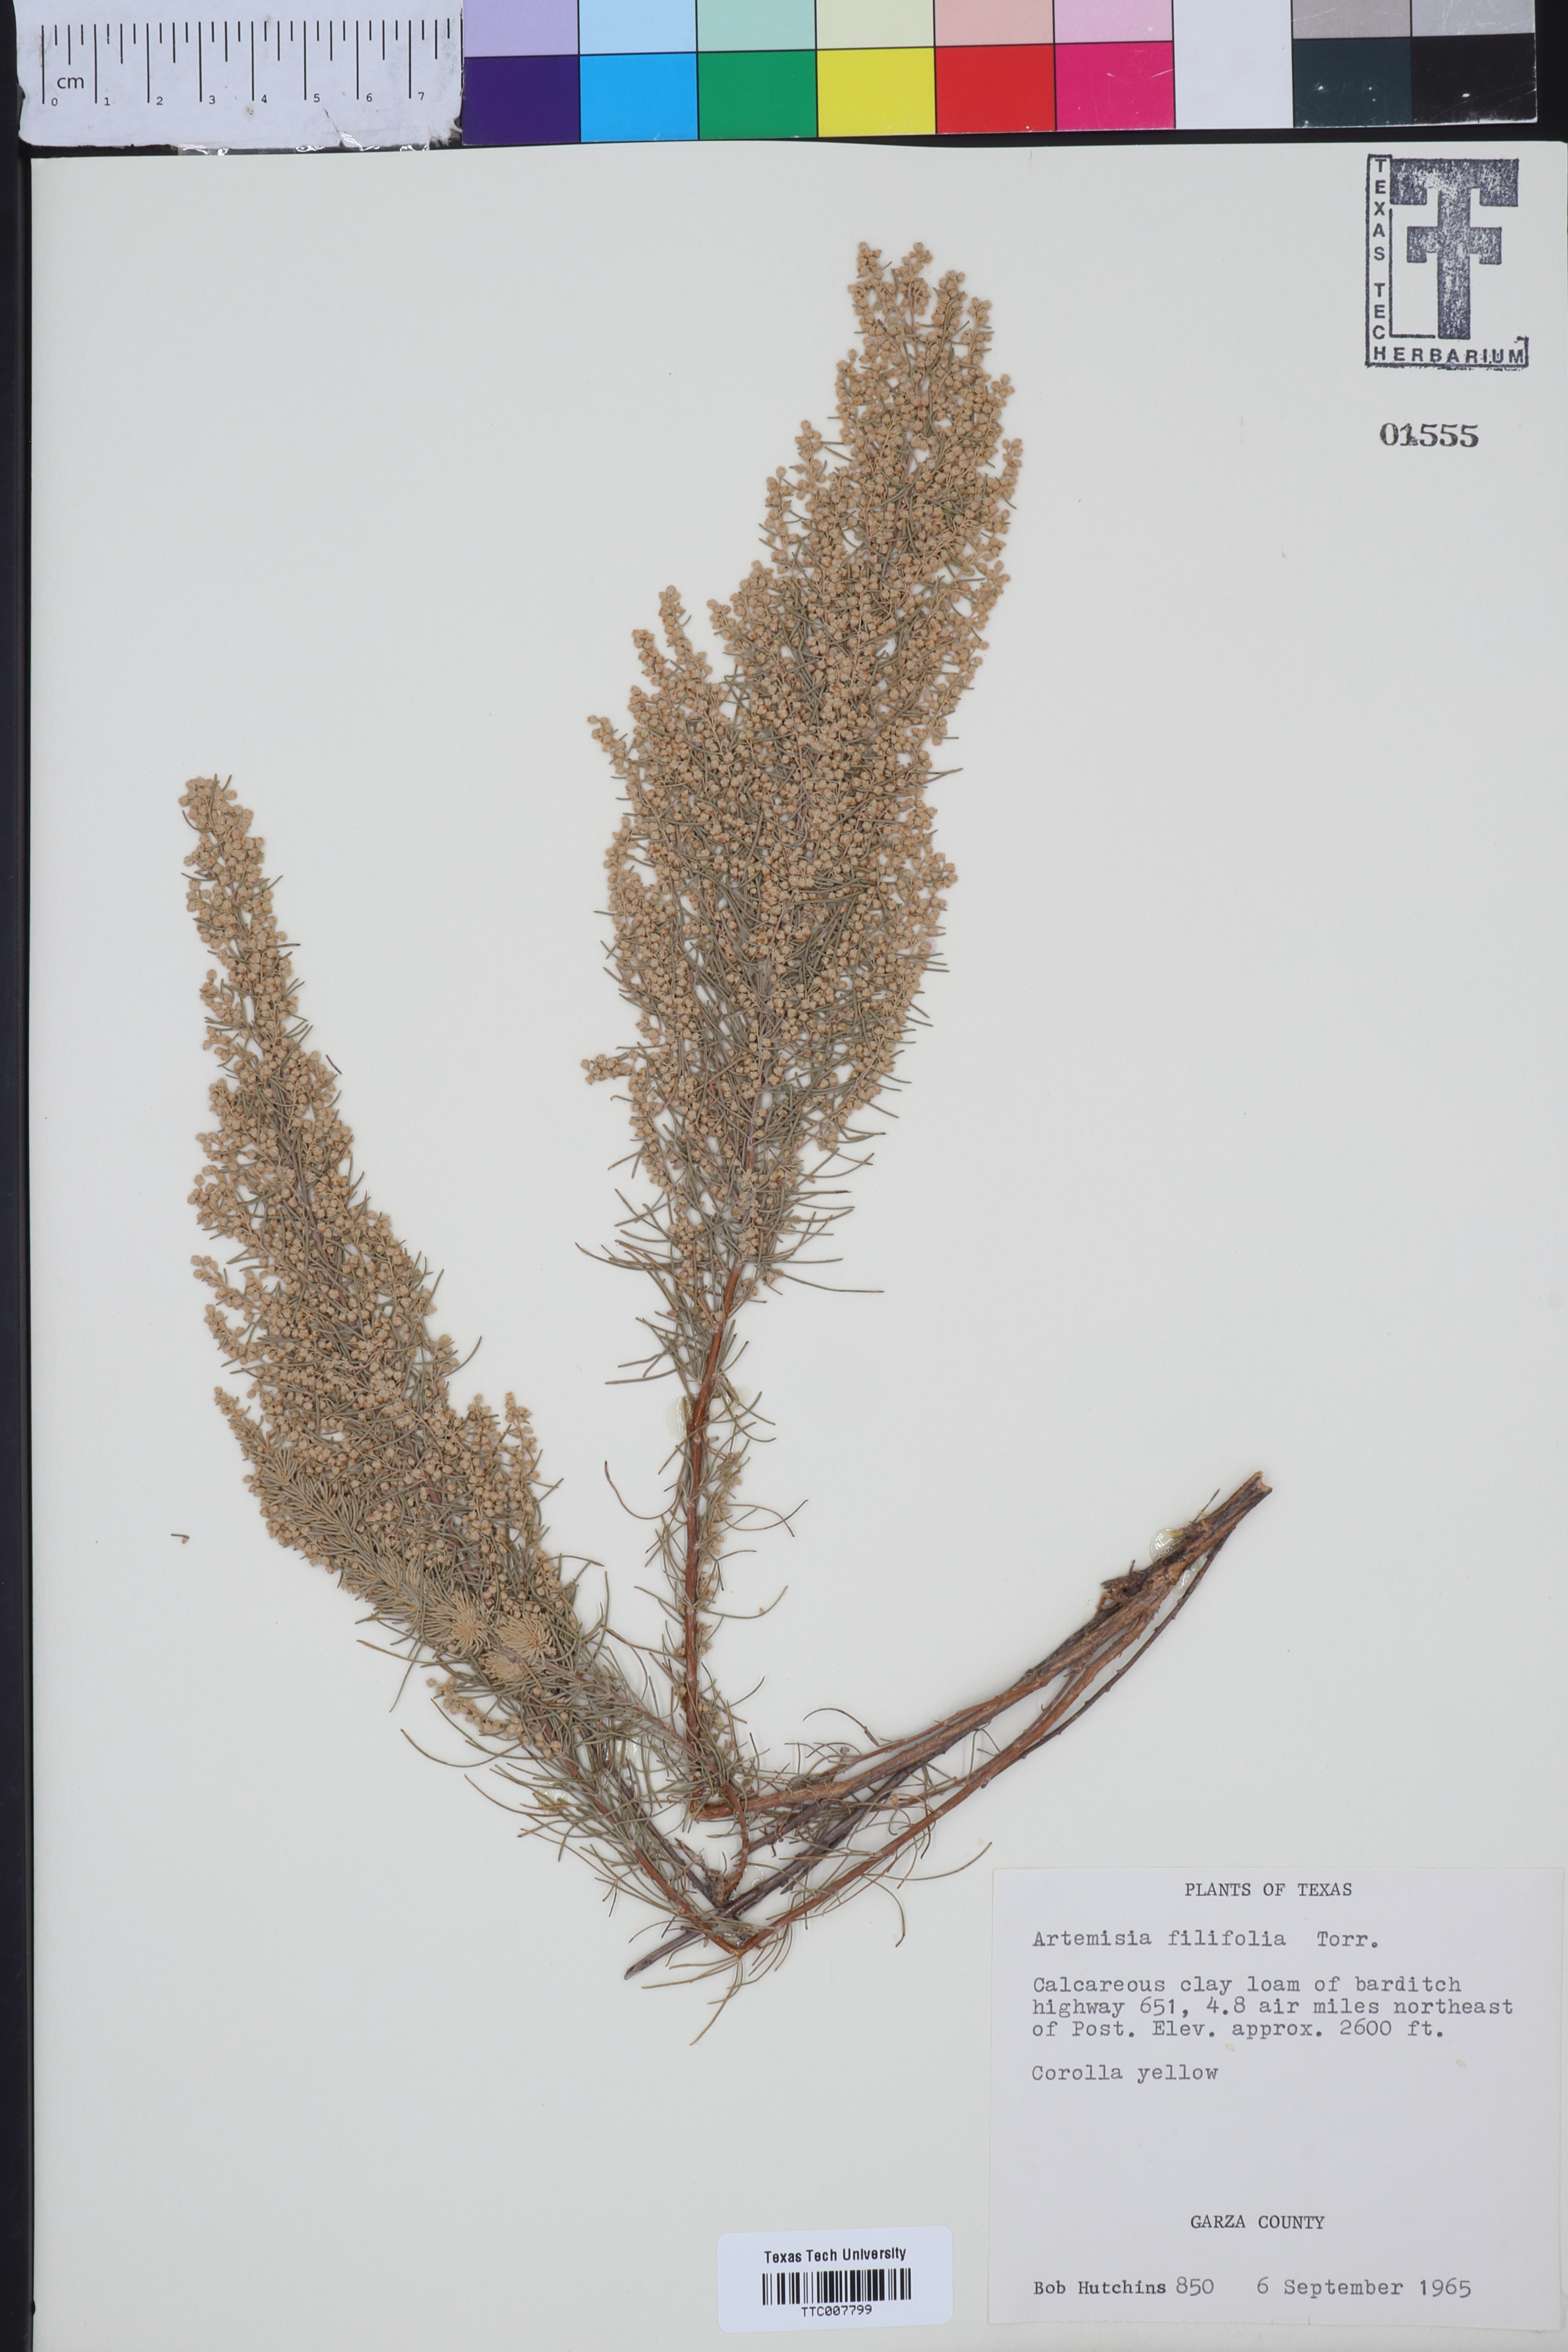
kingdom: Plantae
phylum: Tracheophyta
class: Magnoliopsida
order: Asterales
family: Asteraceae
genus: Artemisia
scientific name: Artemisia filifolia
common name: Sand-sage
